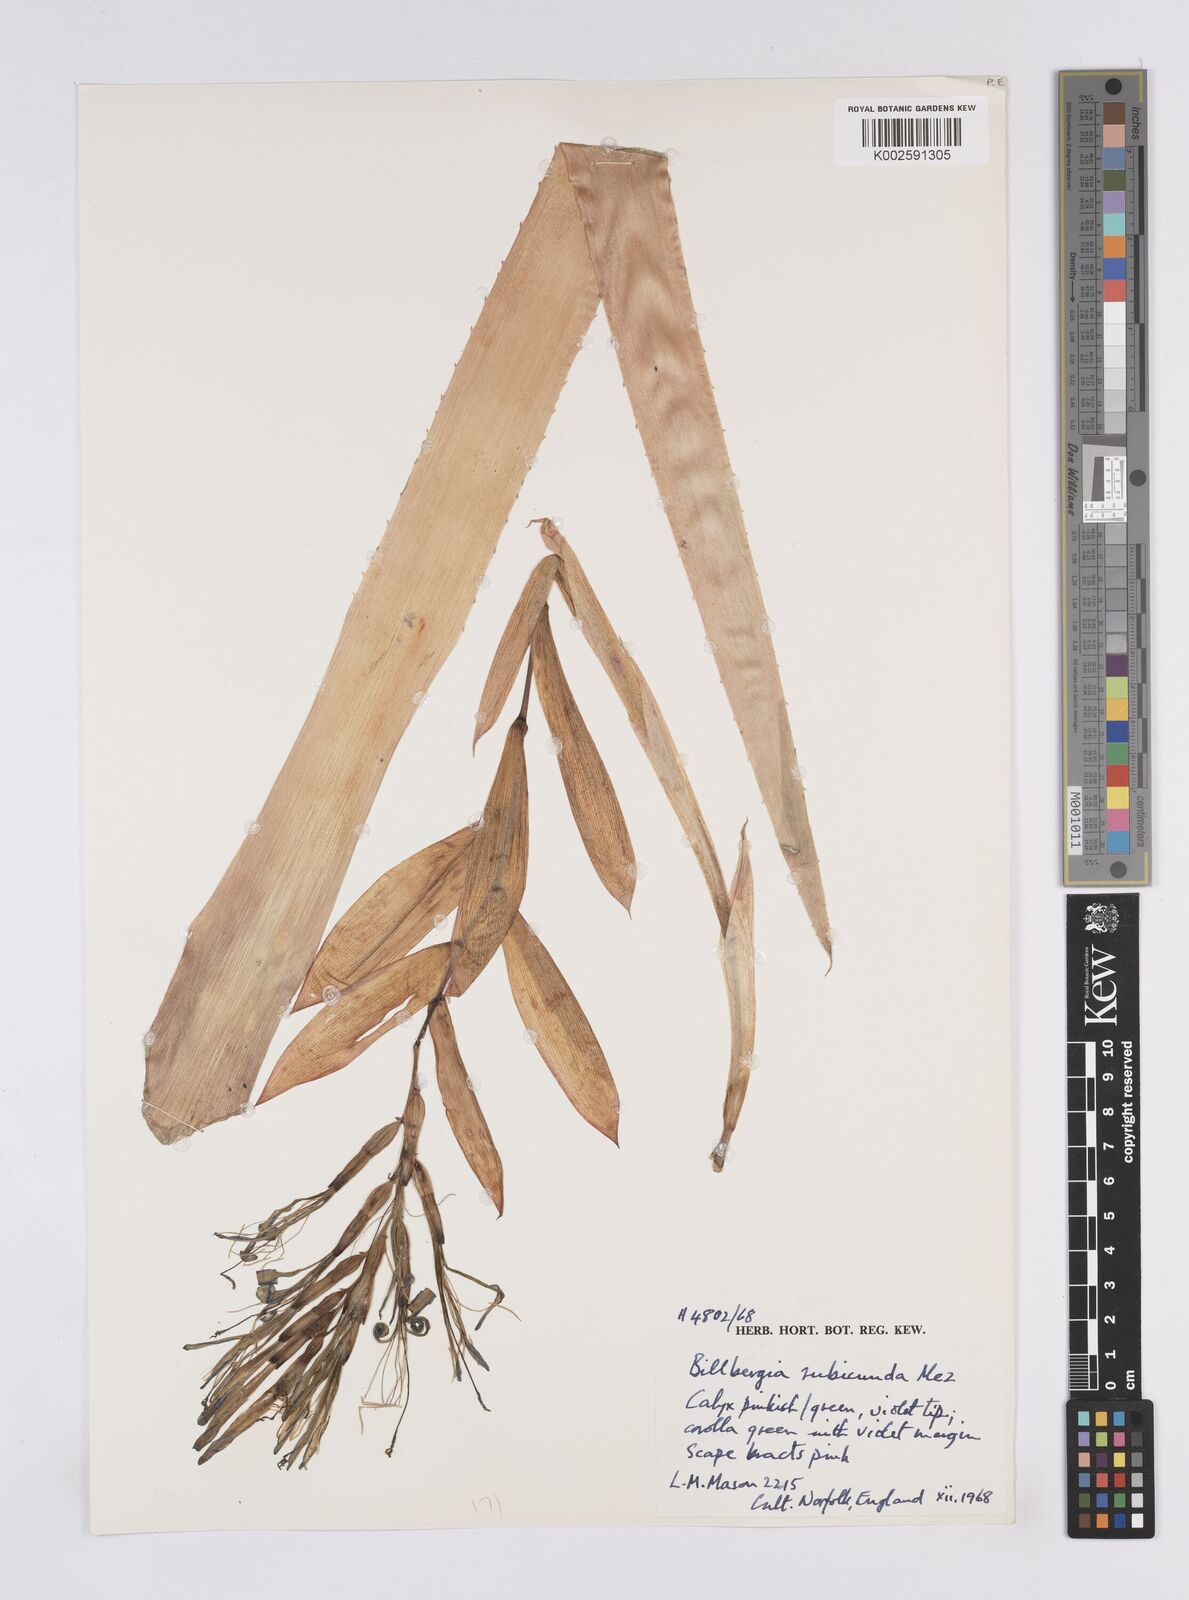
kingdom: Plantae
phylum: Tracheophyta
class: Liliopsida
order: Poales
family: Bromeliaceae
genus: Billbergia
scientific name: Billbergia rubicunda
